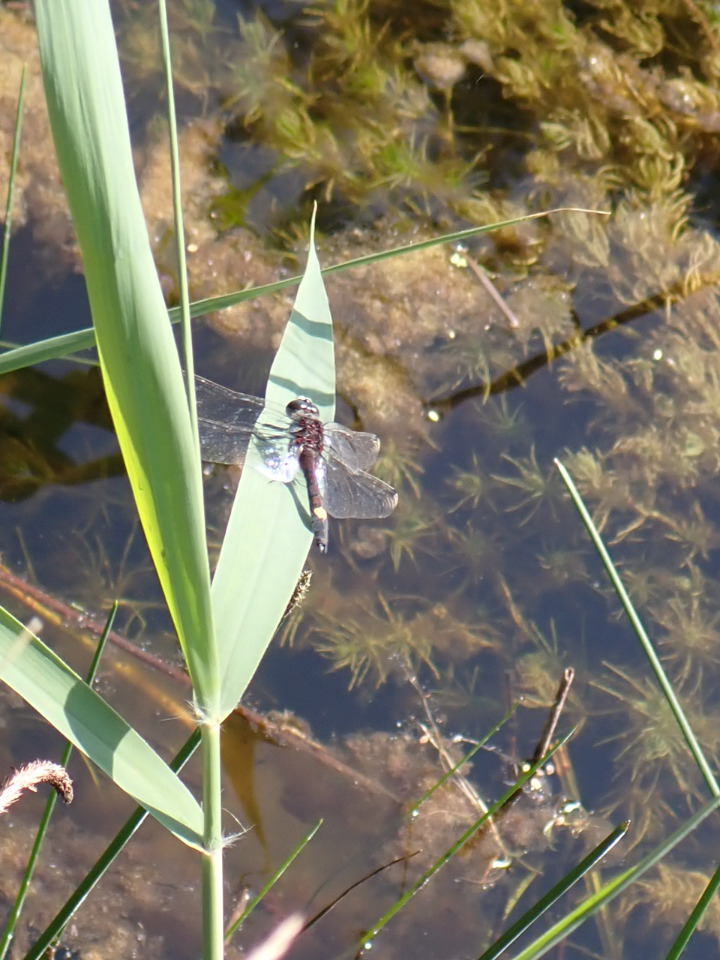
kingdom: Animalia
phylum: Arthropoda
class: Insecta
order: Odonata
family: Libellulidae
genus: Leucorrhinia
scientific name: Leucorrhinia pectoralis
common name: Stor kærguldsmed
